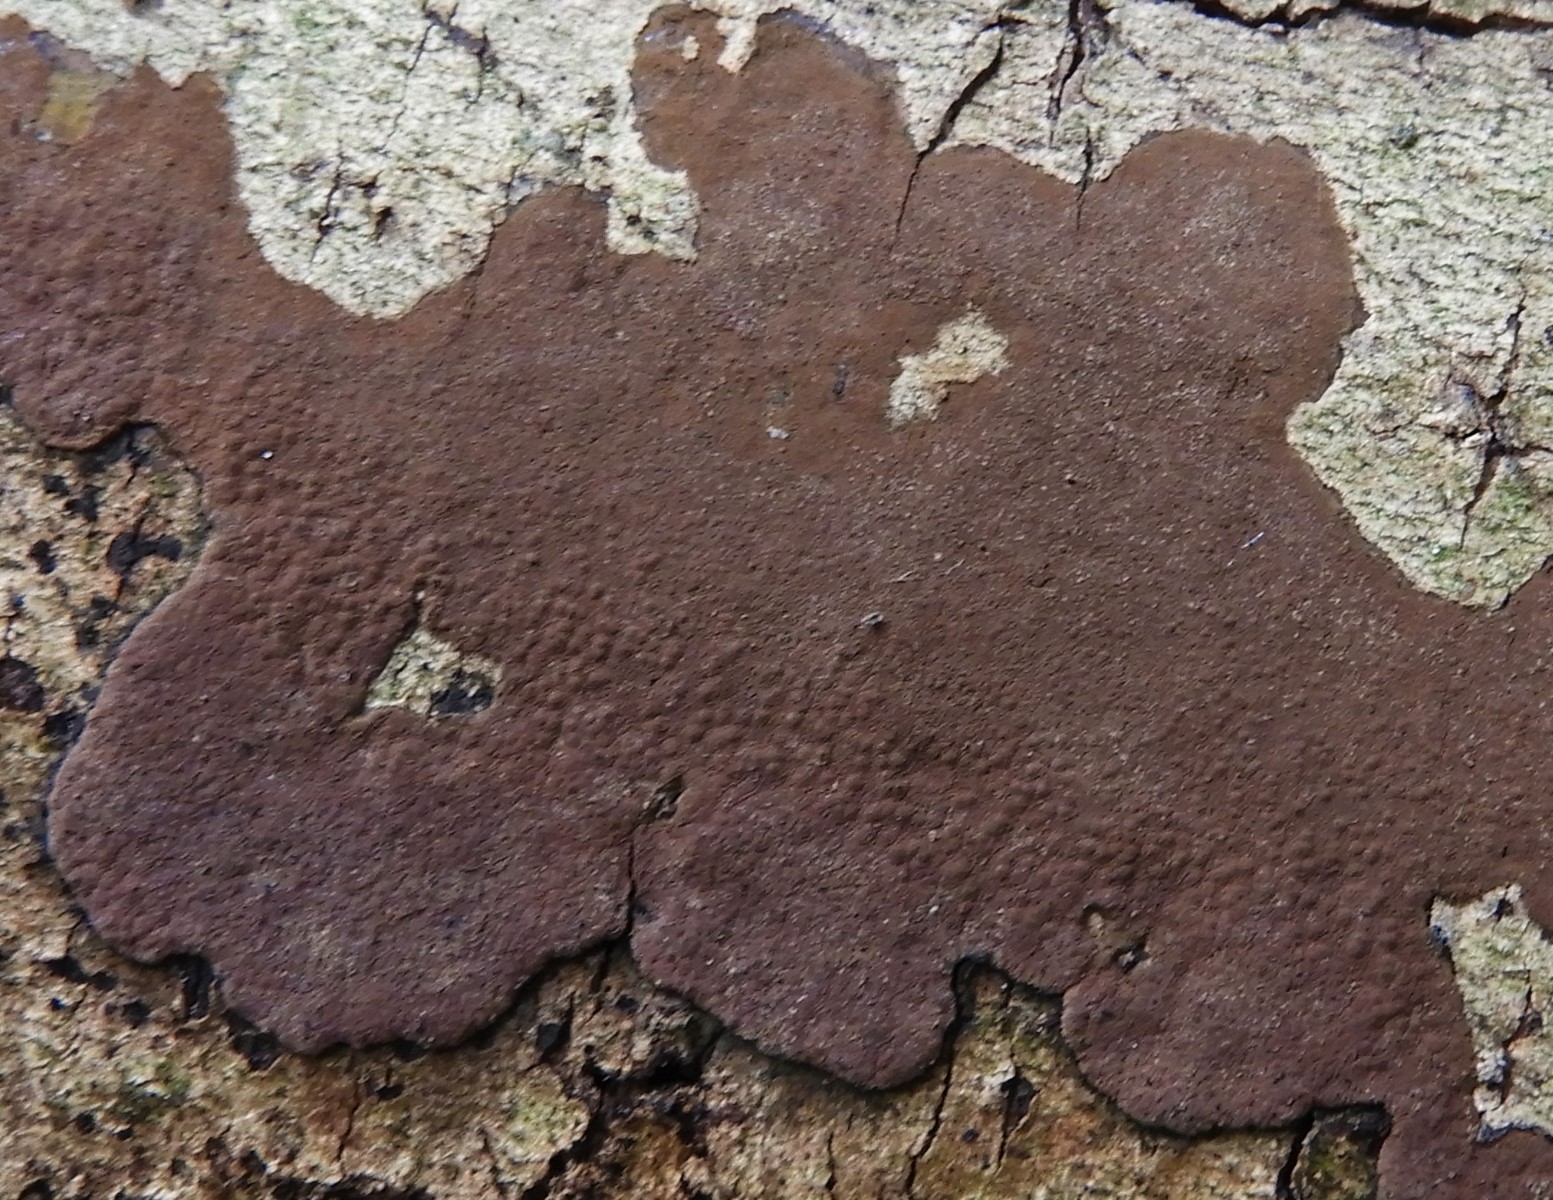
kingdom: Fungi
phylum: Ascomycota
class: Sordariomycetes
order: Xylariales
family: Hypoxylaceae
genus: Hypoxylon
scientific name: Hypoxylon petriniae
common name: nedsænket kulbær
